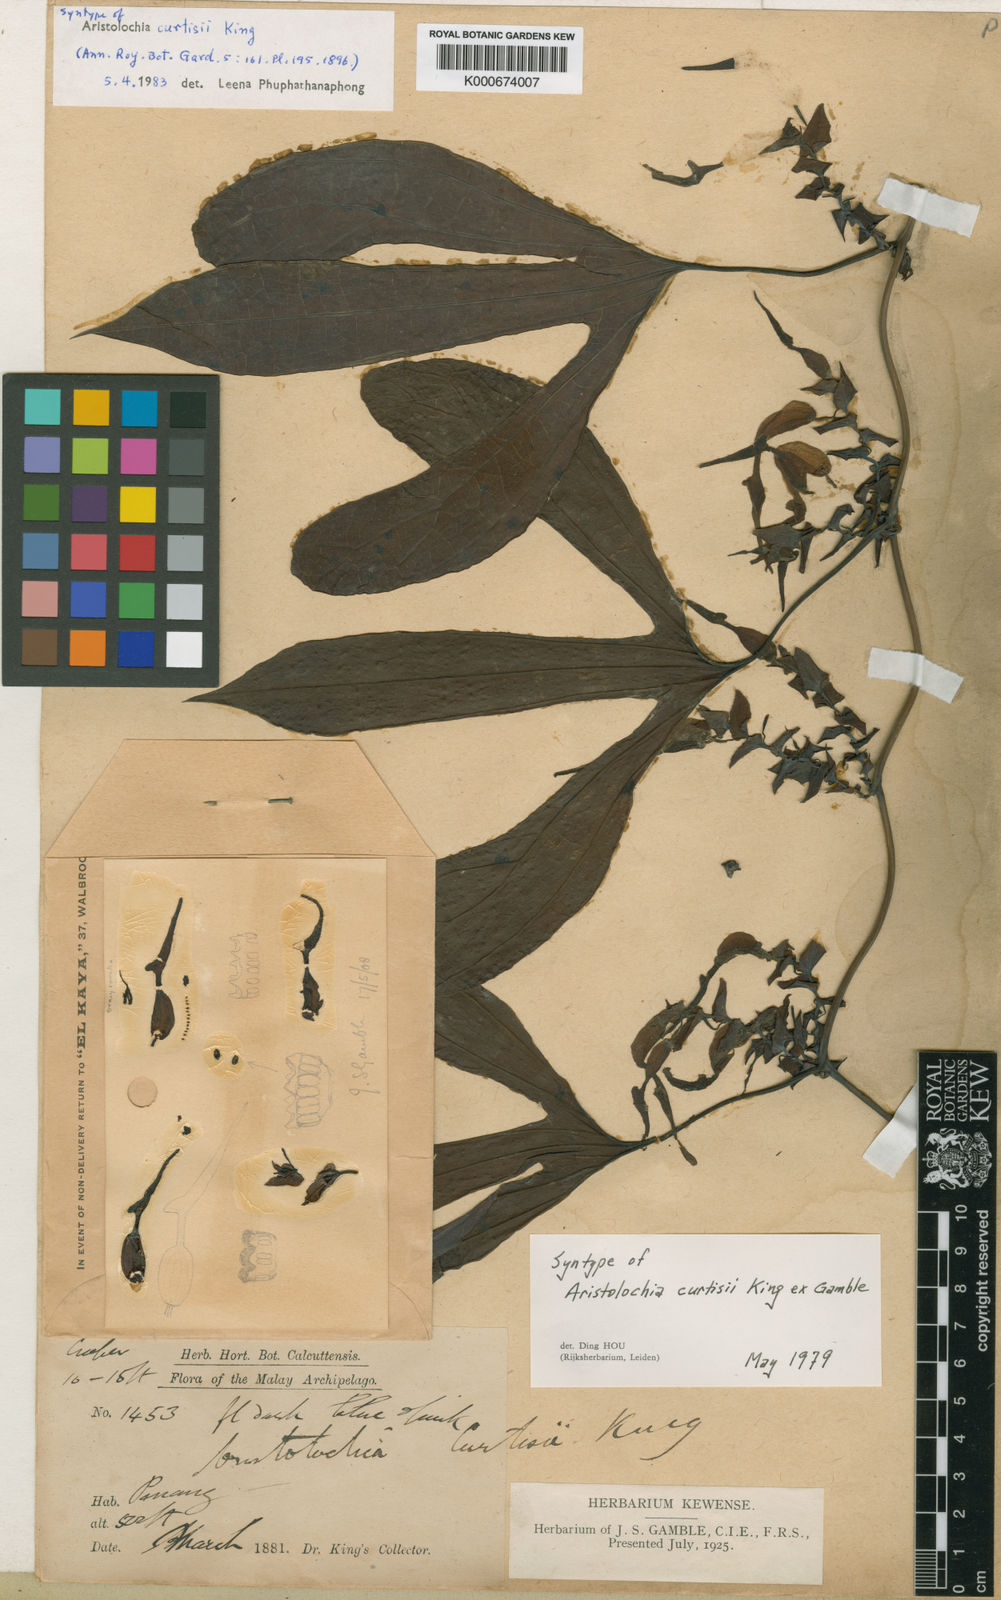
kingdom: Plantae
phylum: Tracheophyta
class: Magnoliopsida
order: Piperales
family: Aristolochiaceae
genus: Aristolochia
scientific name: Aristolochia
